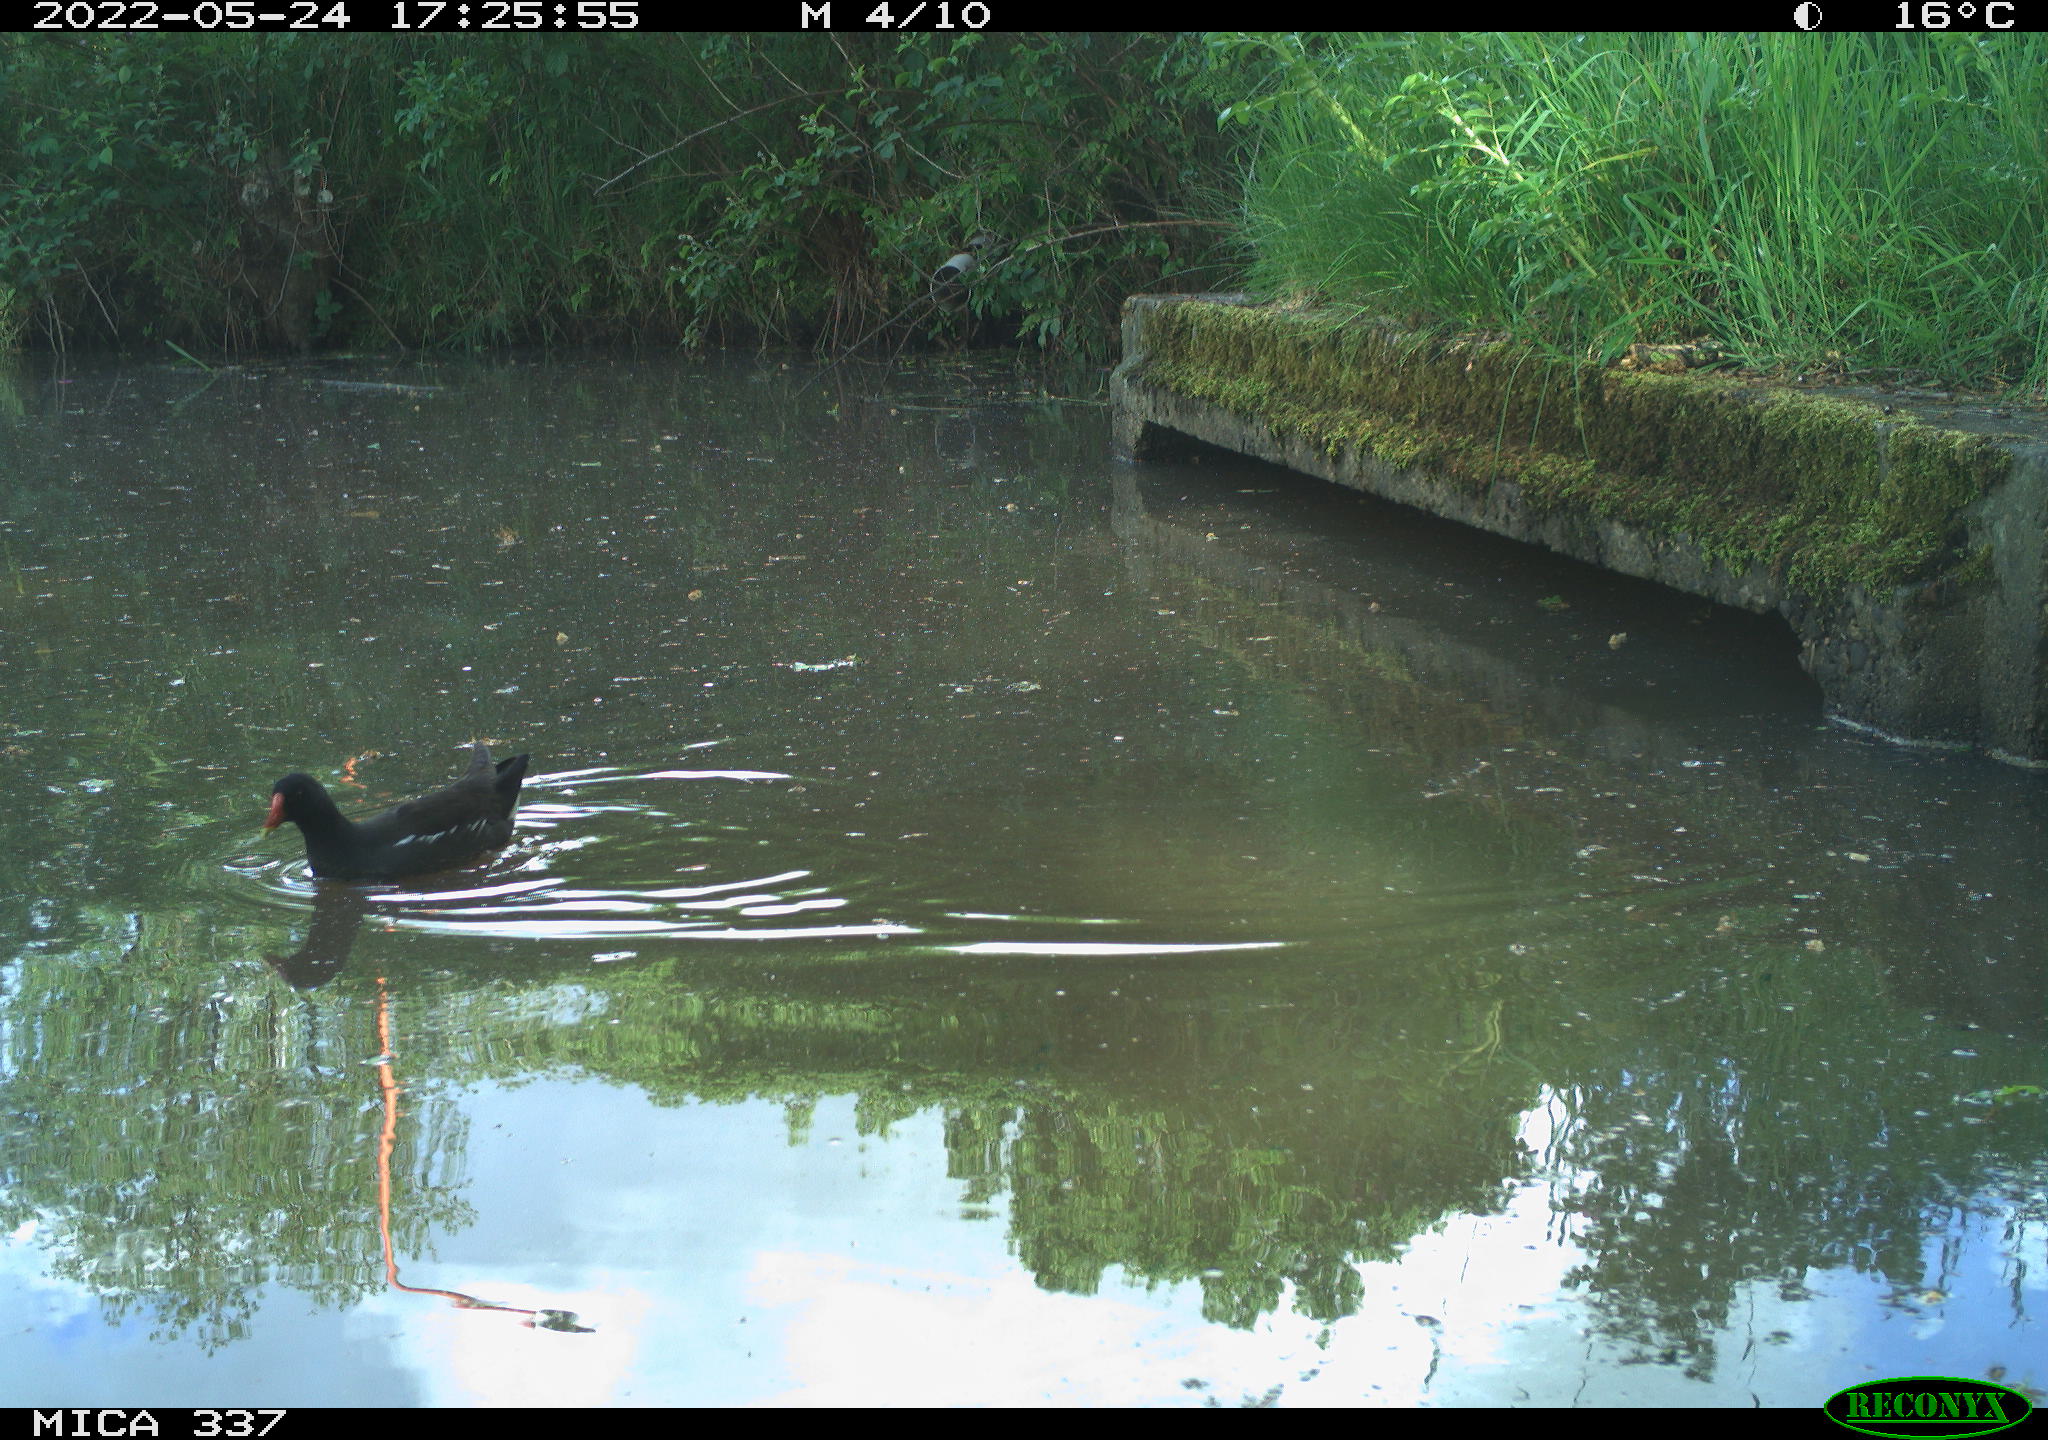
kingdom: Animalia
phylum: Chordata
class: Aves
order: Gruiformes
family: Rallidae
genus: Gallinula
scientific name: Gallinula chloropus
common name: Common moorhen
